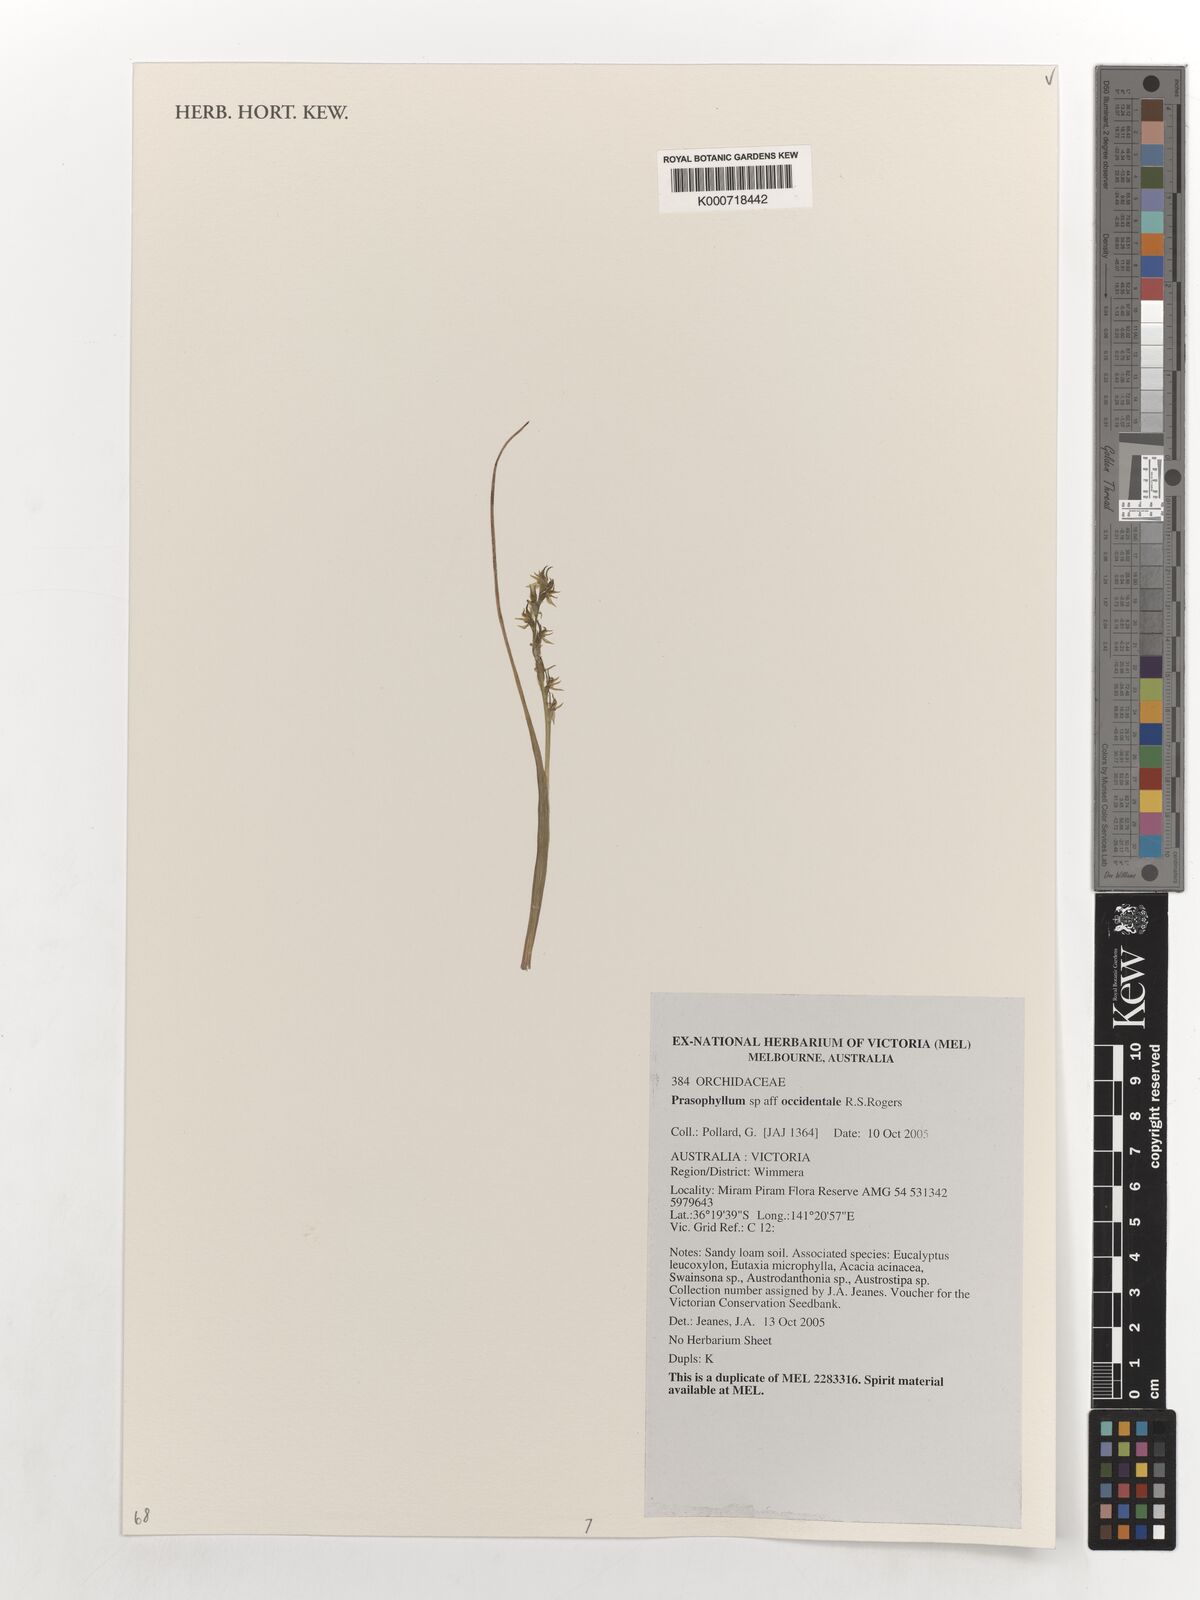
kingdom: Plantae
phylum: Tracheophyta
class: Liliopsida
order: Asparagales
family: Orchidaceae
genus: Prasophyllum
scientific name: Prasophyllum occidentale
